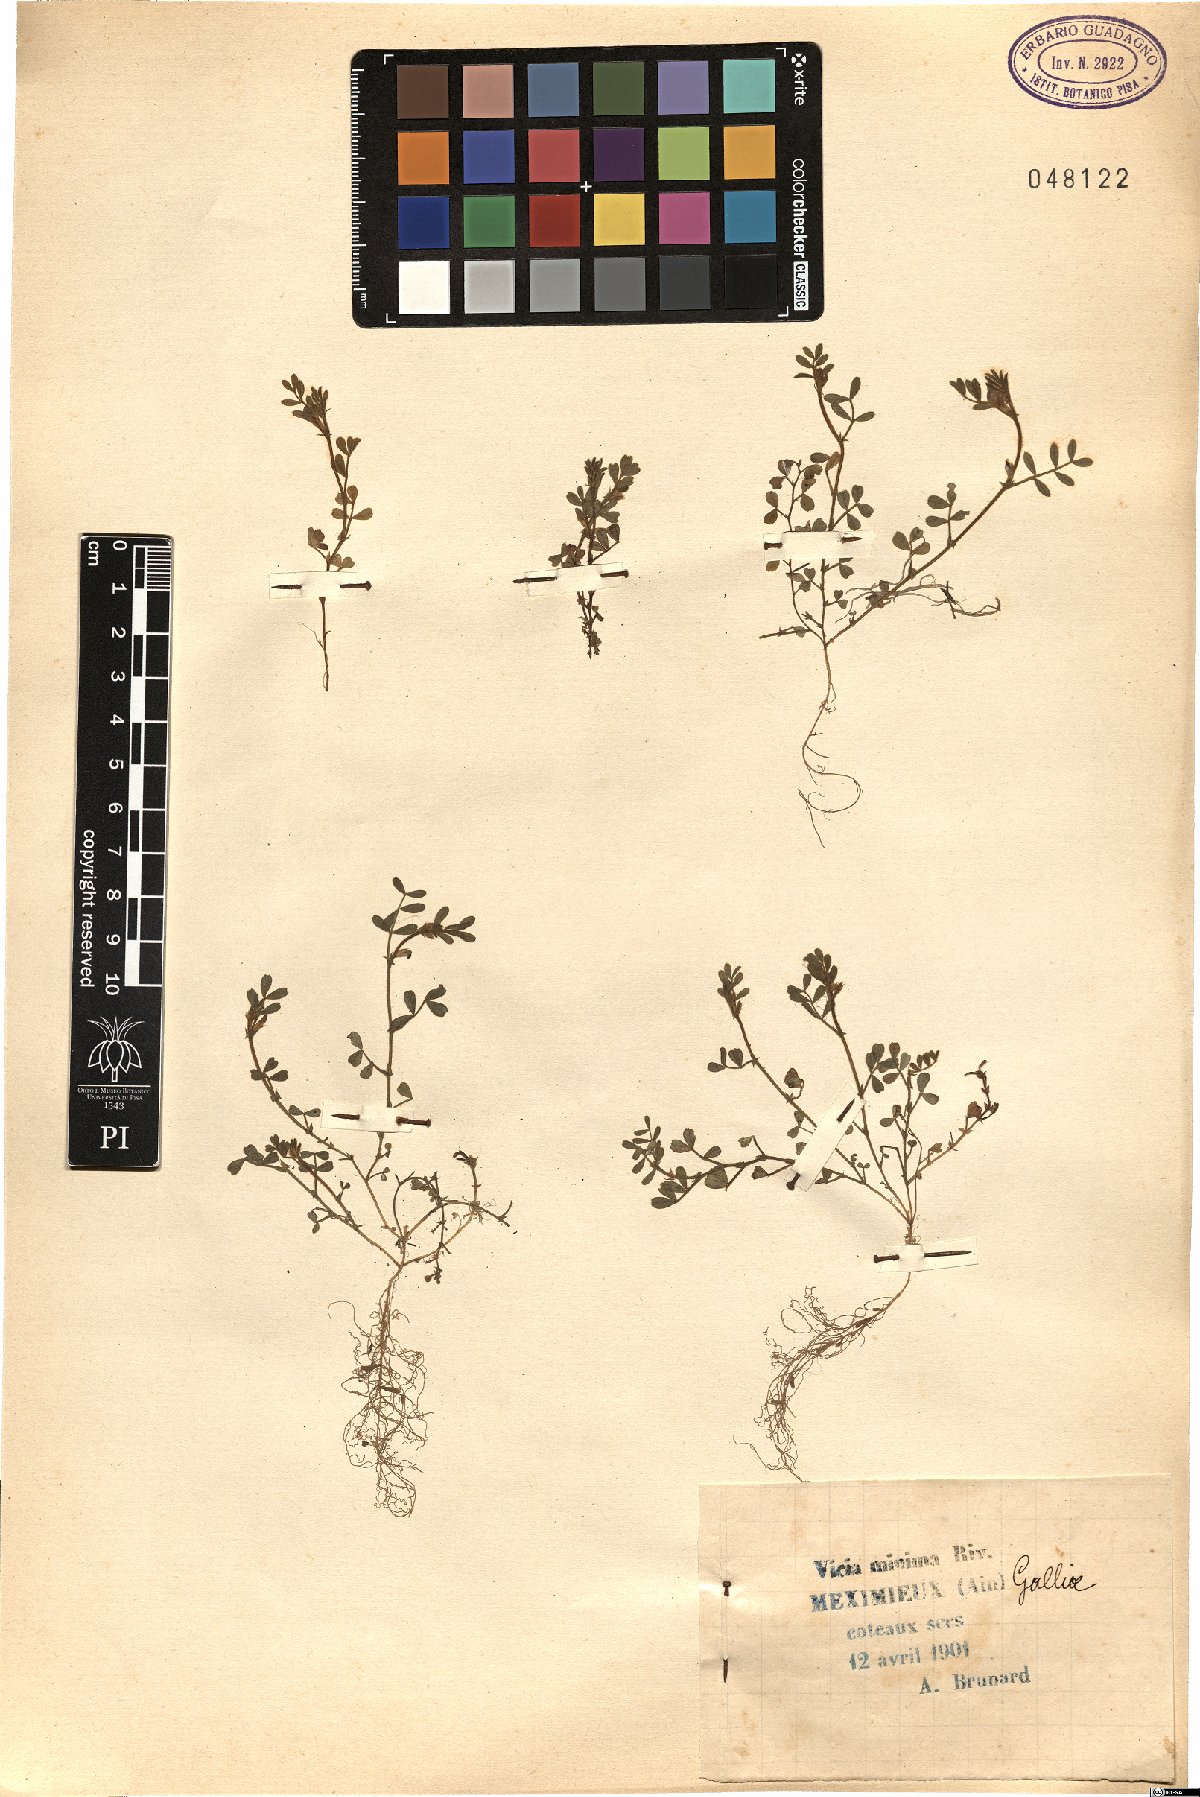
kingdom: Plantae
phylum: Tracheophyta
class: Magnoliopsida
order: Fabales
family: Fabaceae
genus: Vicia
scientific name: Vicia lathyroides
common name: Spring vetch
